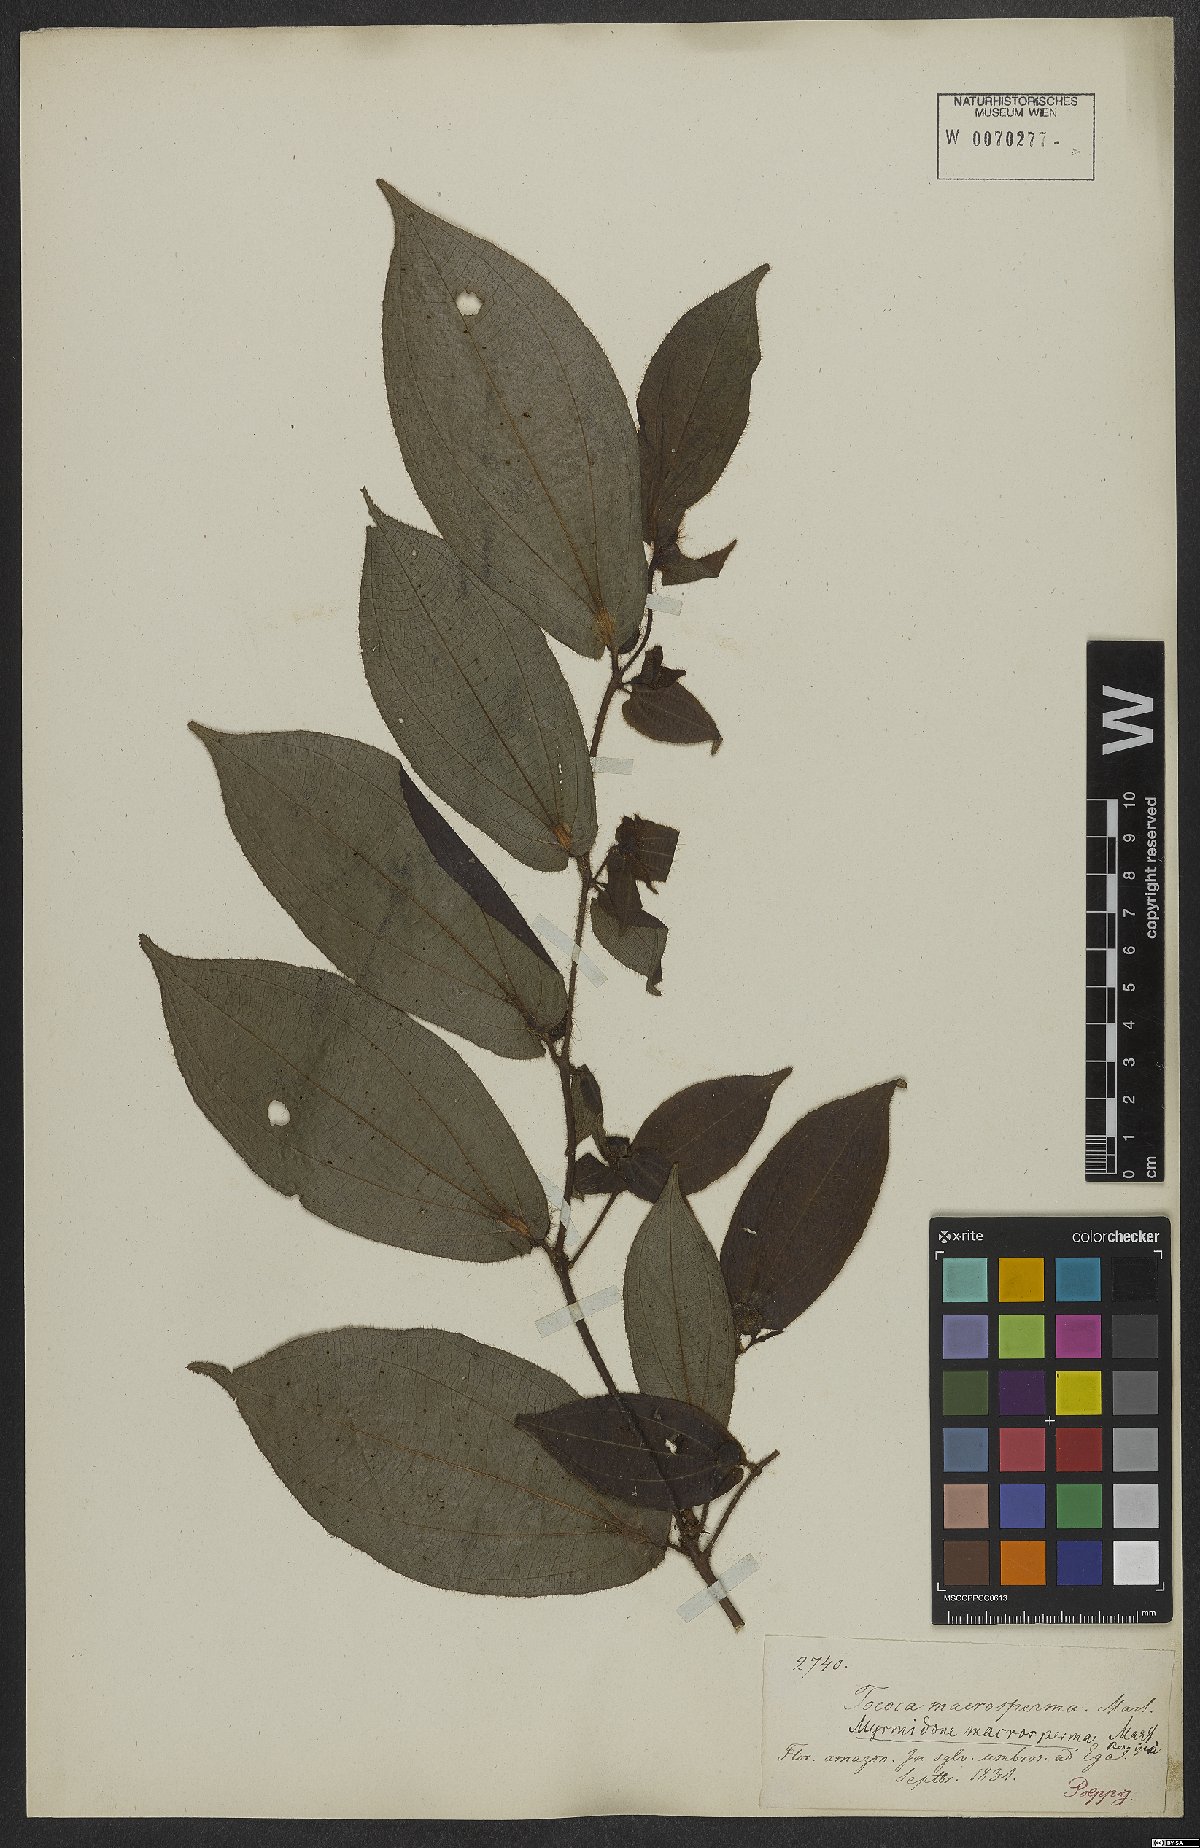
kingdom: Plantae
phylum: Tracheophyta
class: Magnoliopsida
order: Myrtales
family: Melastomataceae
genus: Miconia
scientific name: Miconia macrosperma
